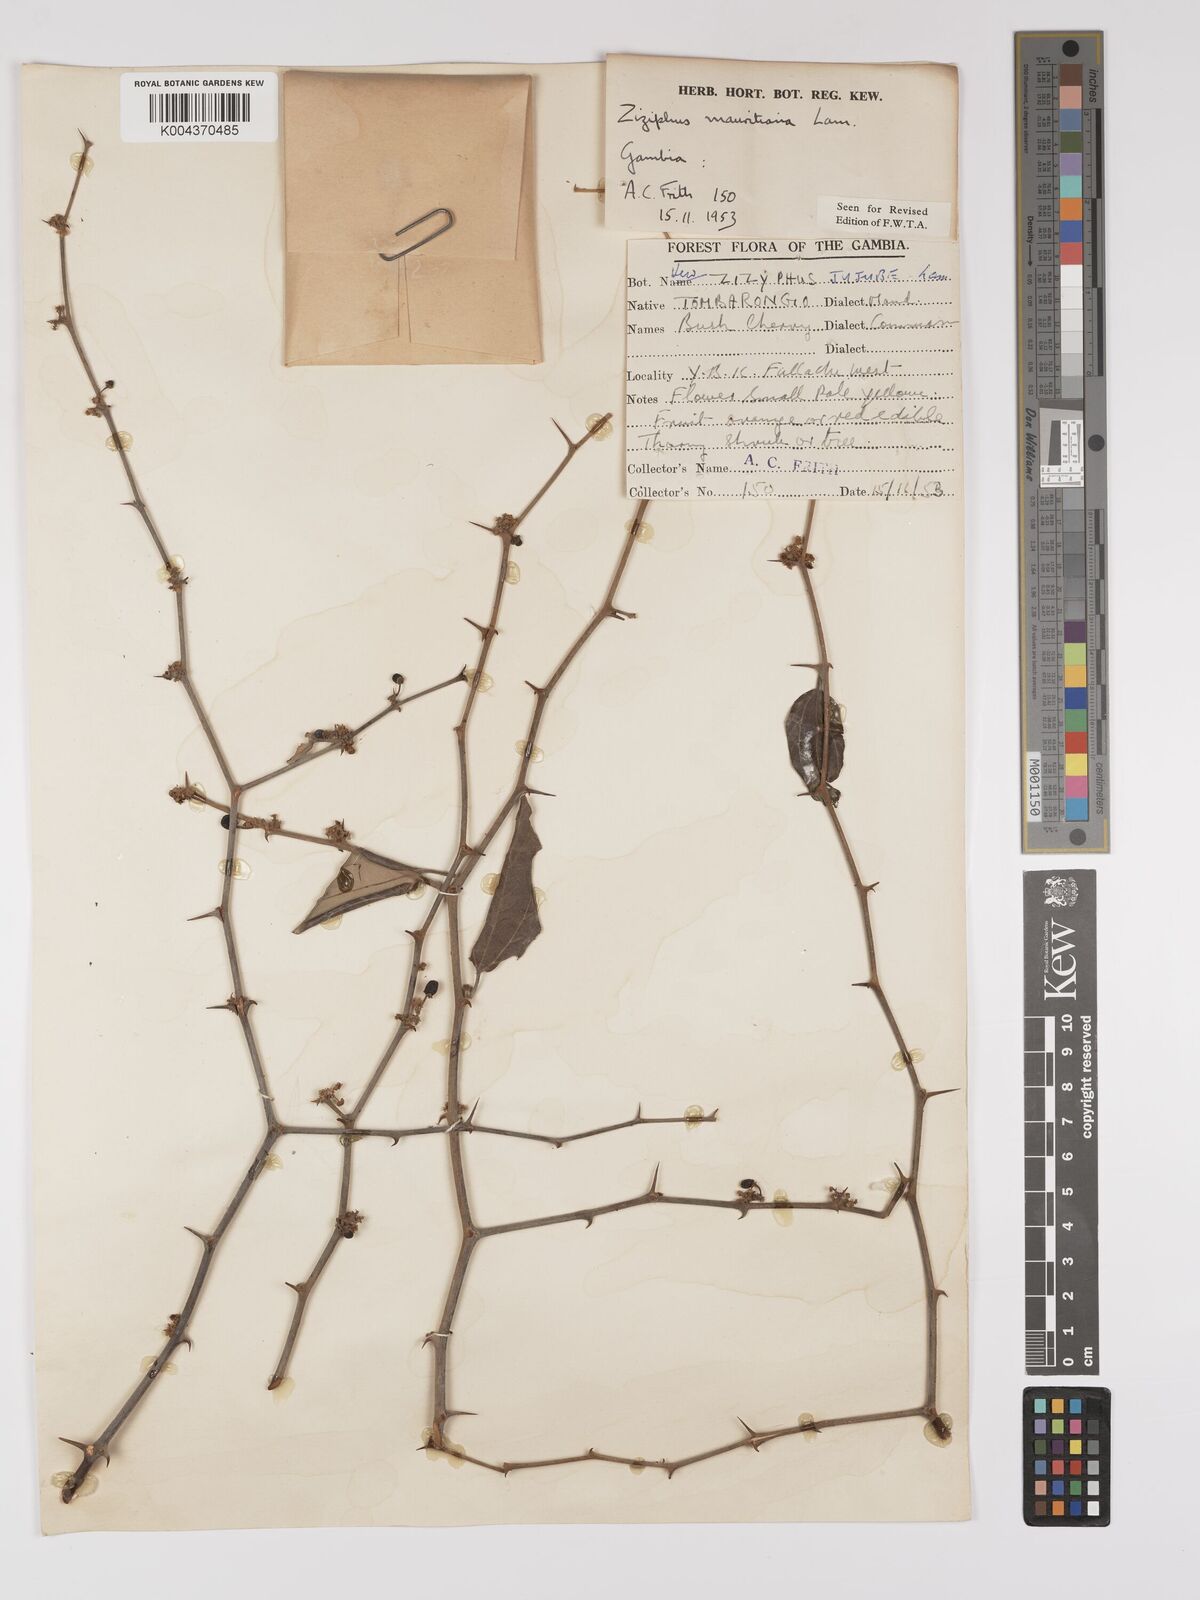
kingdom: Plantae
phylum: Tracheophyta
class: Magnoliopsida
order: Rosales
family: Rhamnaceae
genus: Ziziphus
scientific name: Ziziphus mauritiana
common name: Indian jujube
